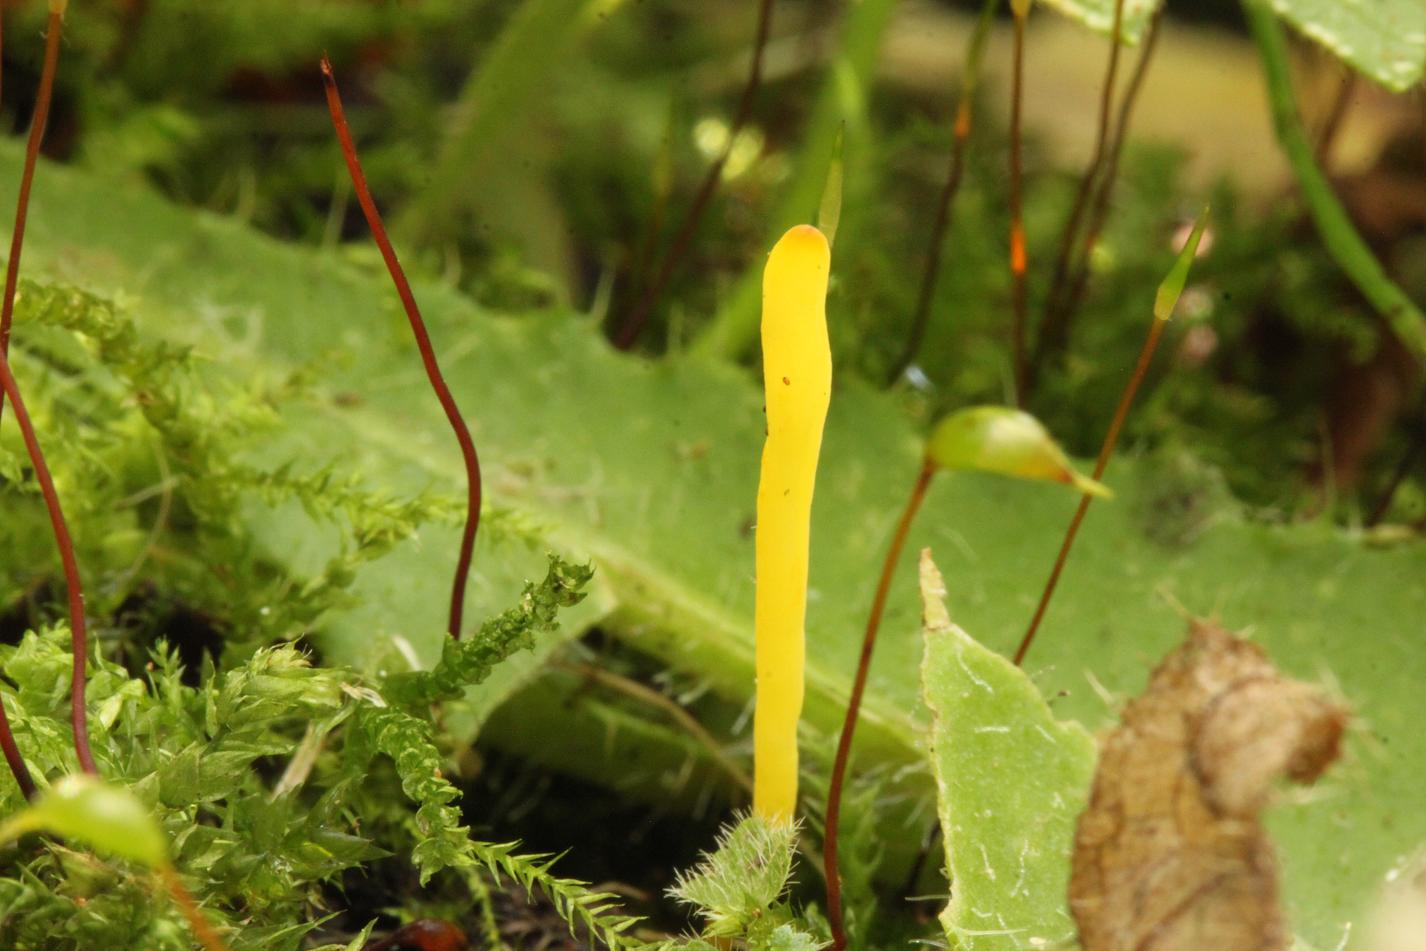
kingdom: Fungi
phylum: Basidiomycota
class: Agaricomycetes
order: Agaricales
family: Clavariaceae
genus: Clavulinopsis
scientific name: Clavulinopsis
